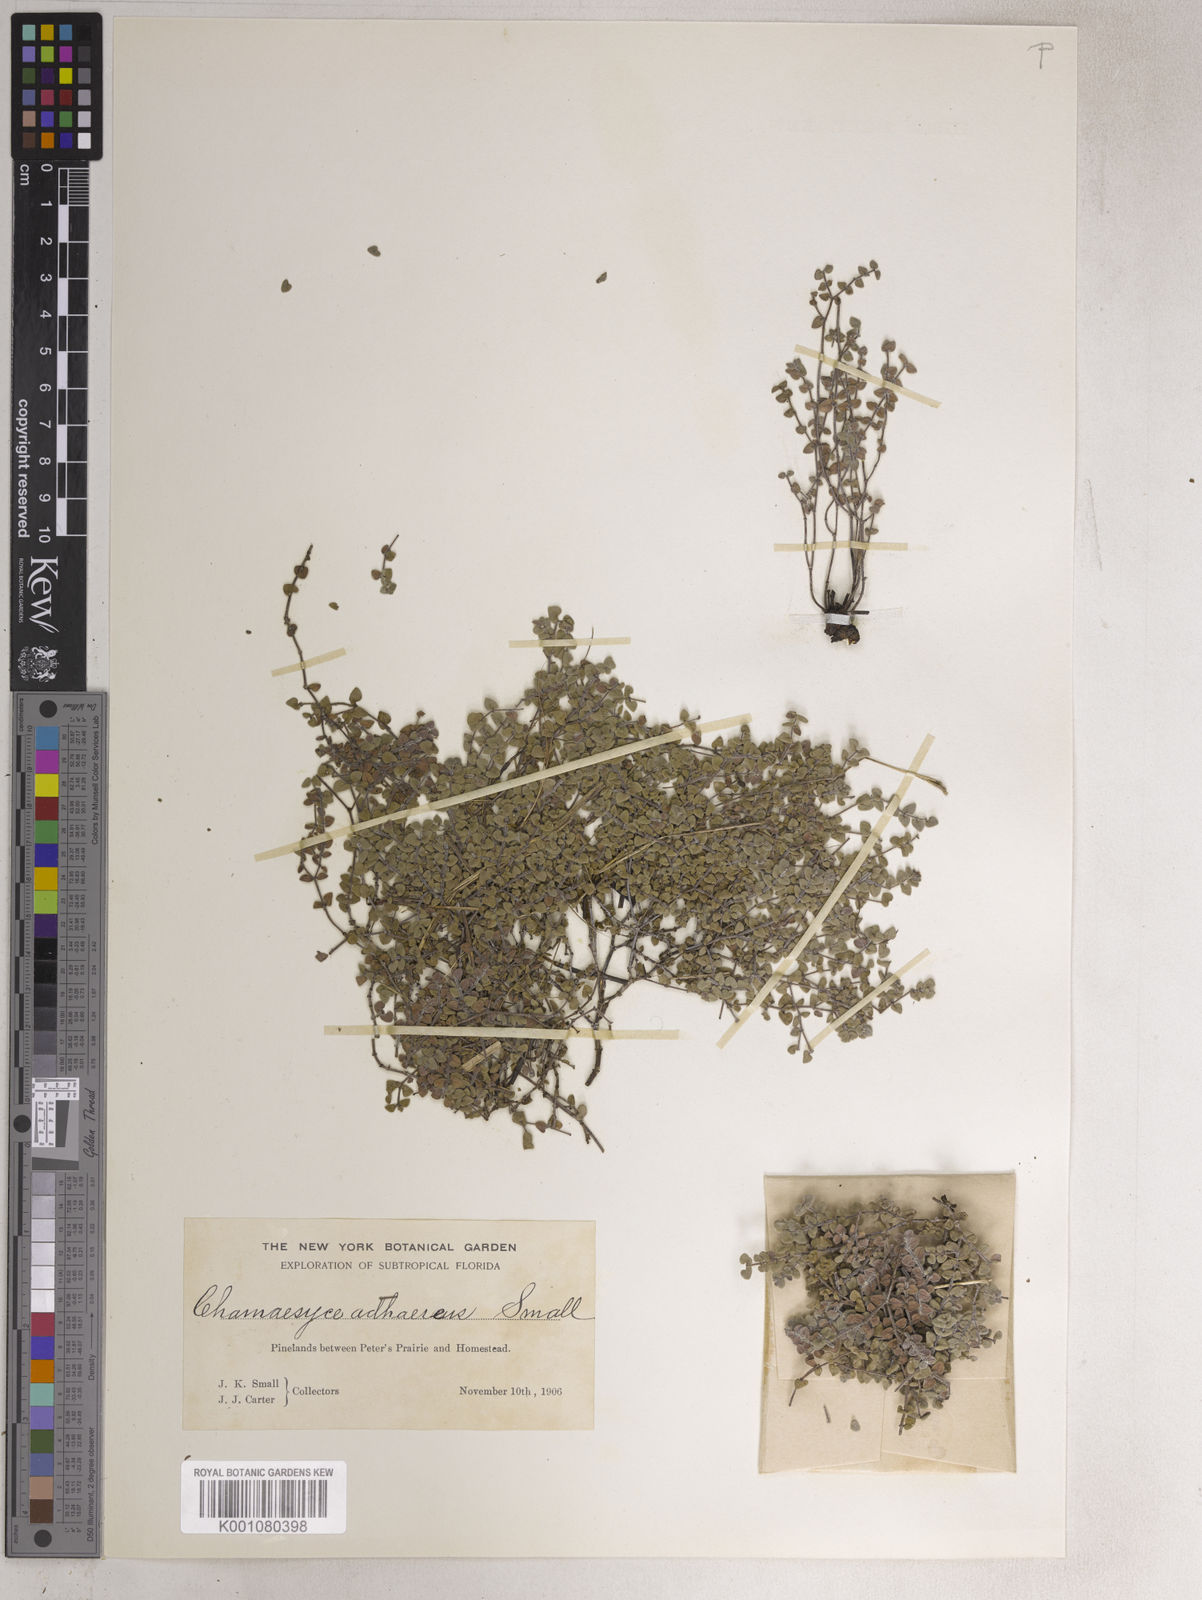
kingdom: Plantae
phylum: Tracheophyta
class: Magnoliopsida
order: Malpighiales
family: Euphorbiaceae
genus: Euphorbia
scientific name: Euphorbia
